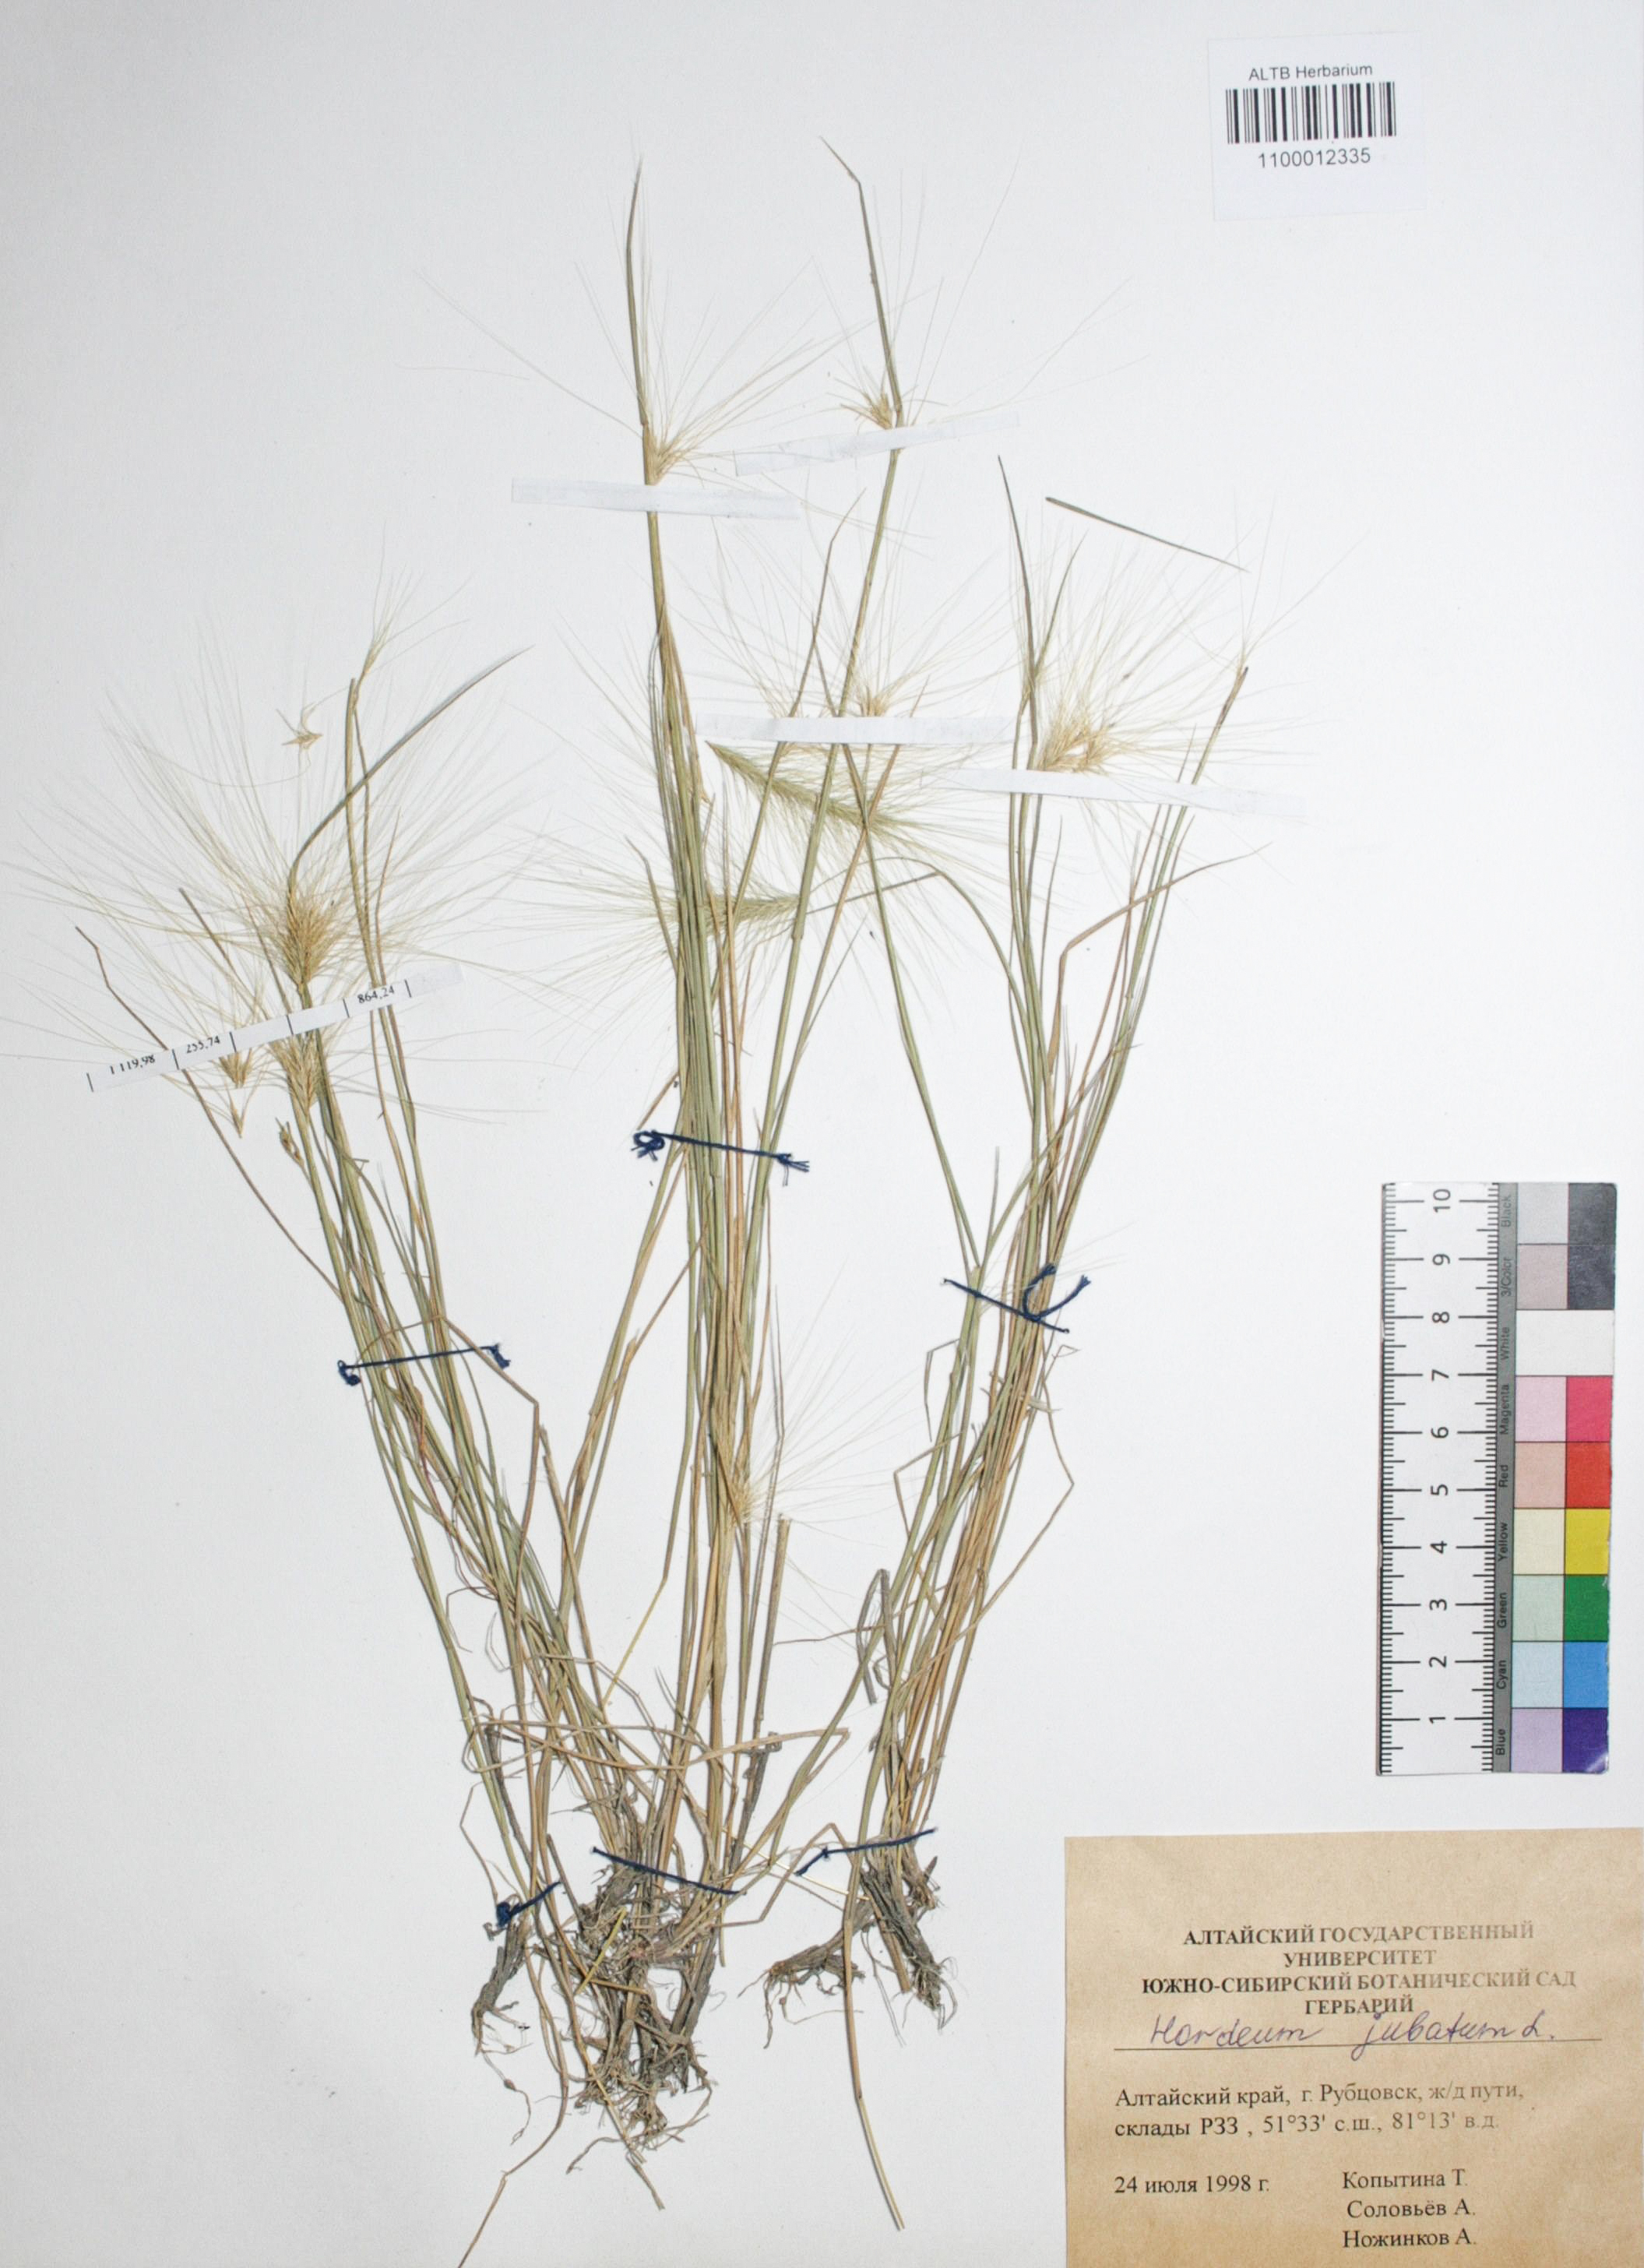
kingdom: Plantae
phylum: Tracheophyta
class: Liliopsida
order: Poales
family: Poaceae
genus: Hordeum
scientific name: Hordeum jubatum
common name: Foxtail barley
